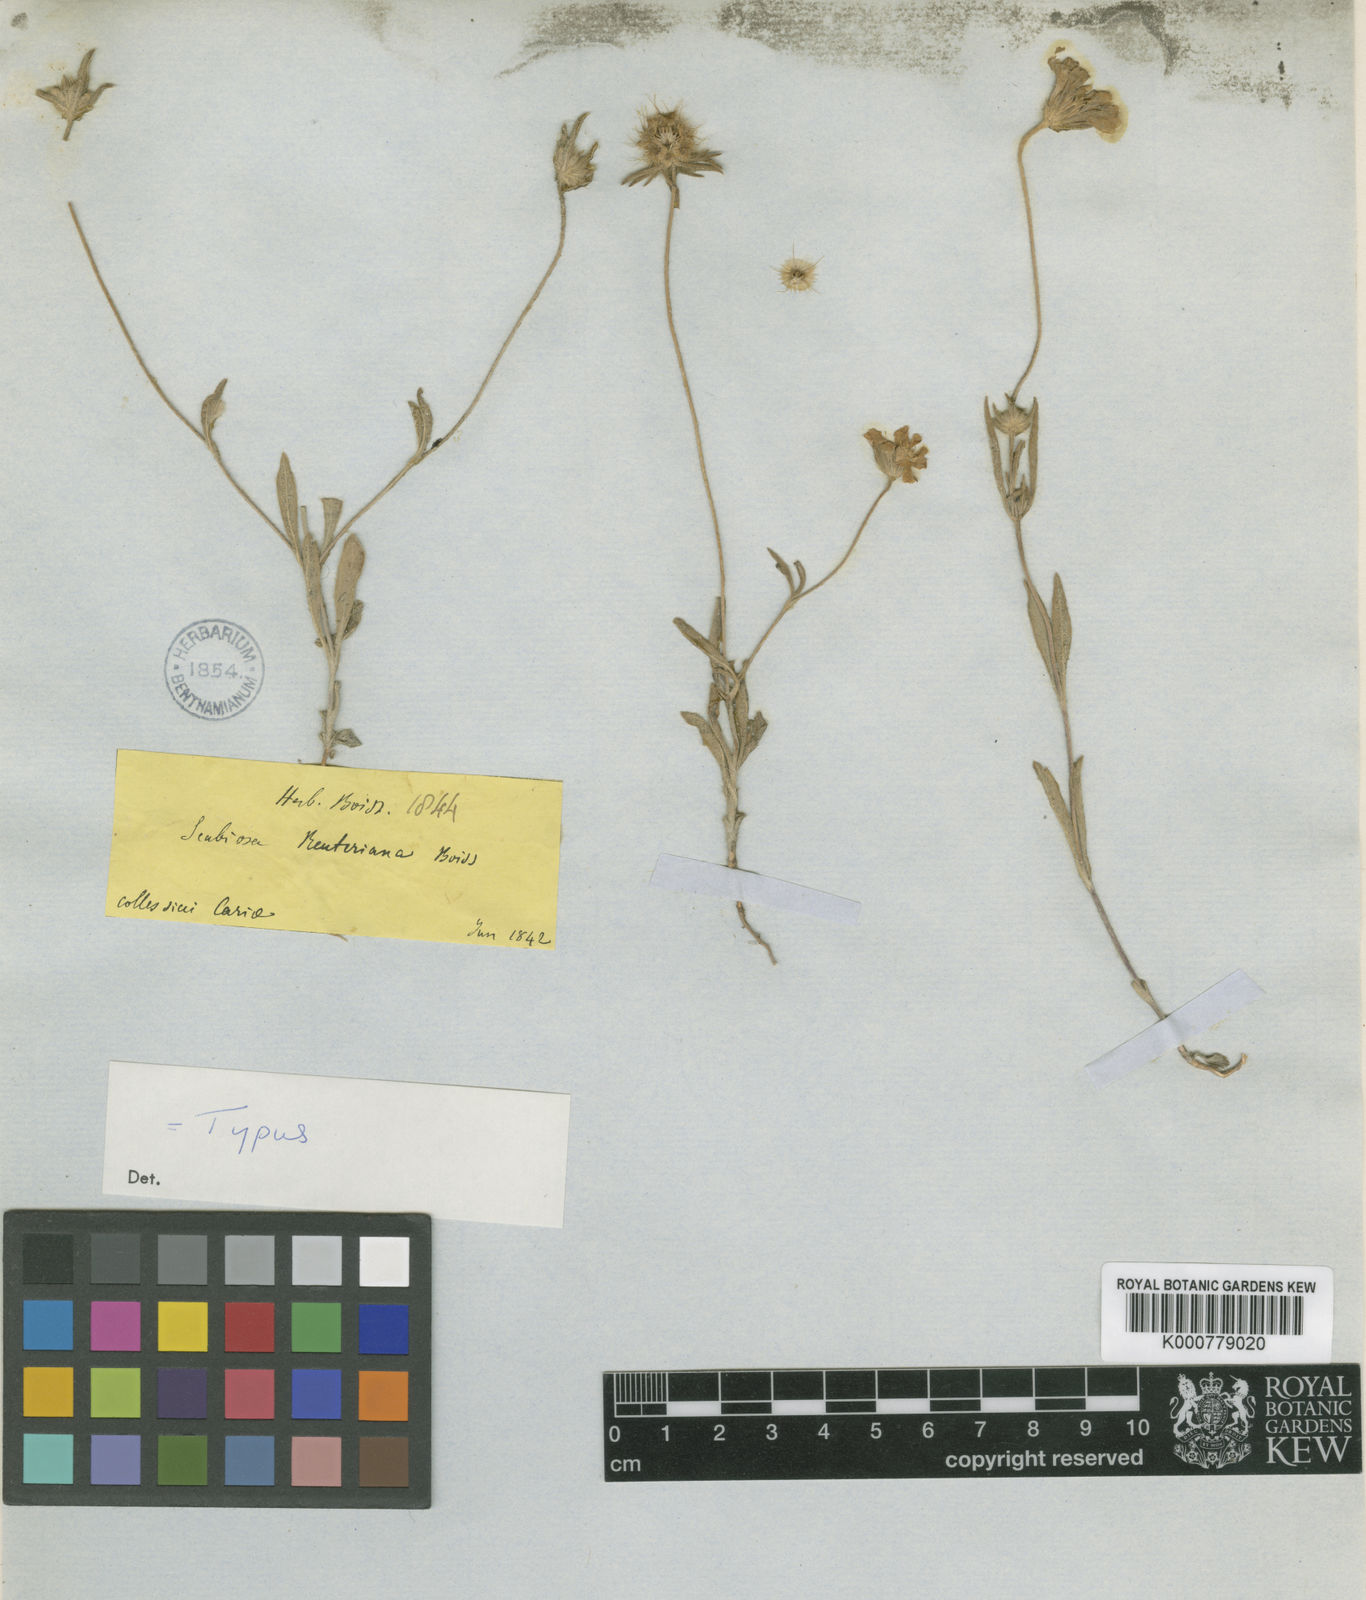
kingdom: Plantae
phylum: Tracheophyta
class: Magnoliopsida
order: Dipsacales
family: Caprifoliaceae
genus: Lomelosia
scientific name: Lomelosia reuteriana
